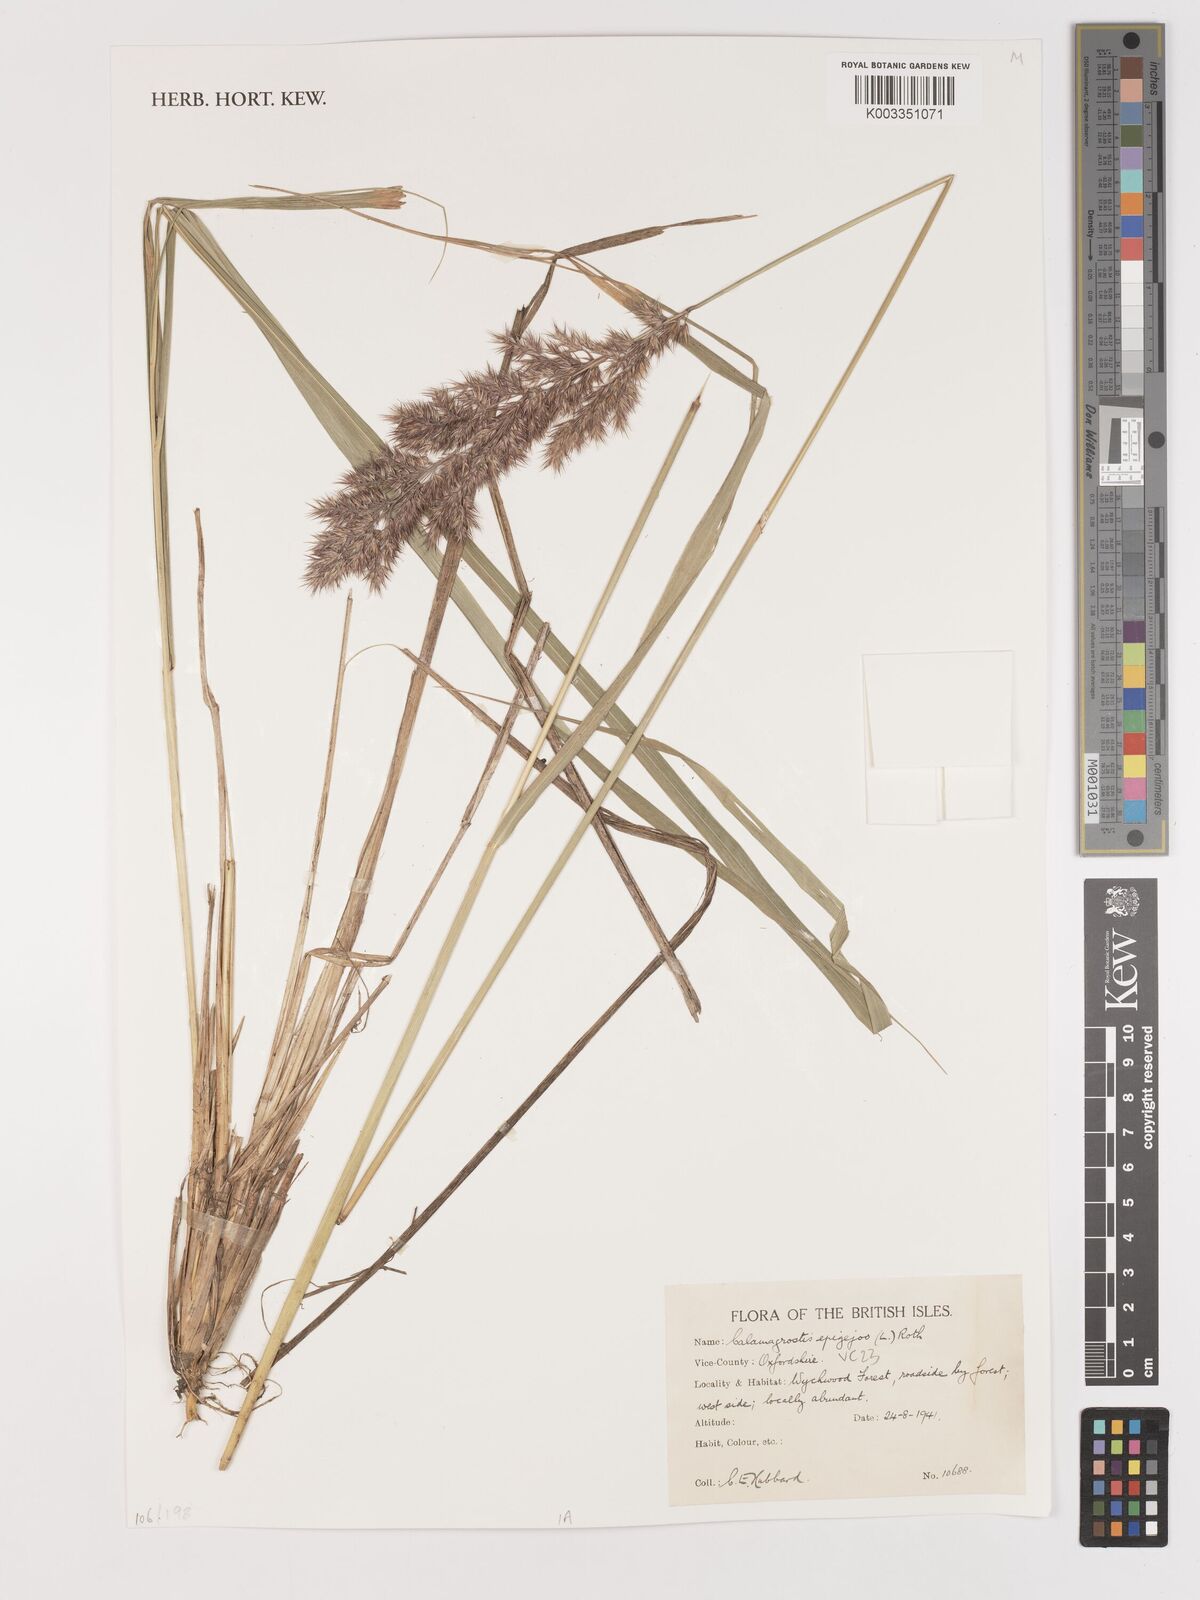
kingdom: Plantae
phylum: Tracheophyta
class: Liliopsida
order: Poales
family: Poaceae
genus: Calamagrostis
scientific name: Calamagrostis epigejos
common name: Wood small-reed
